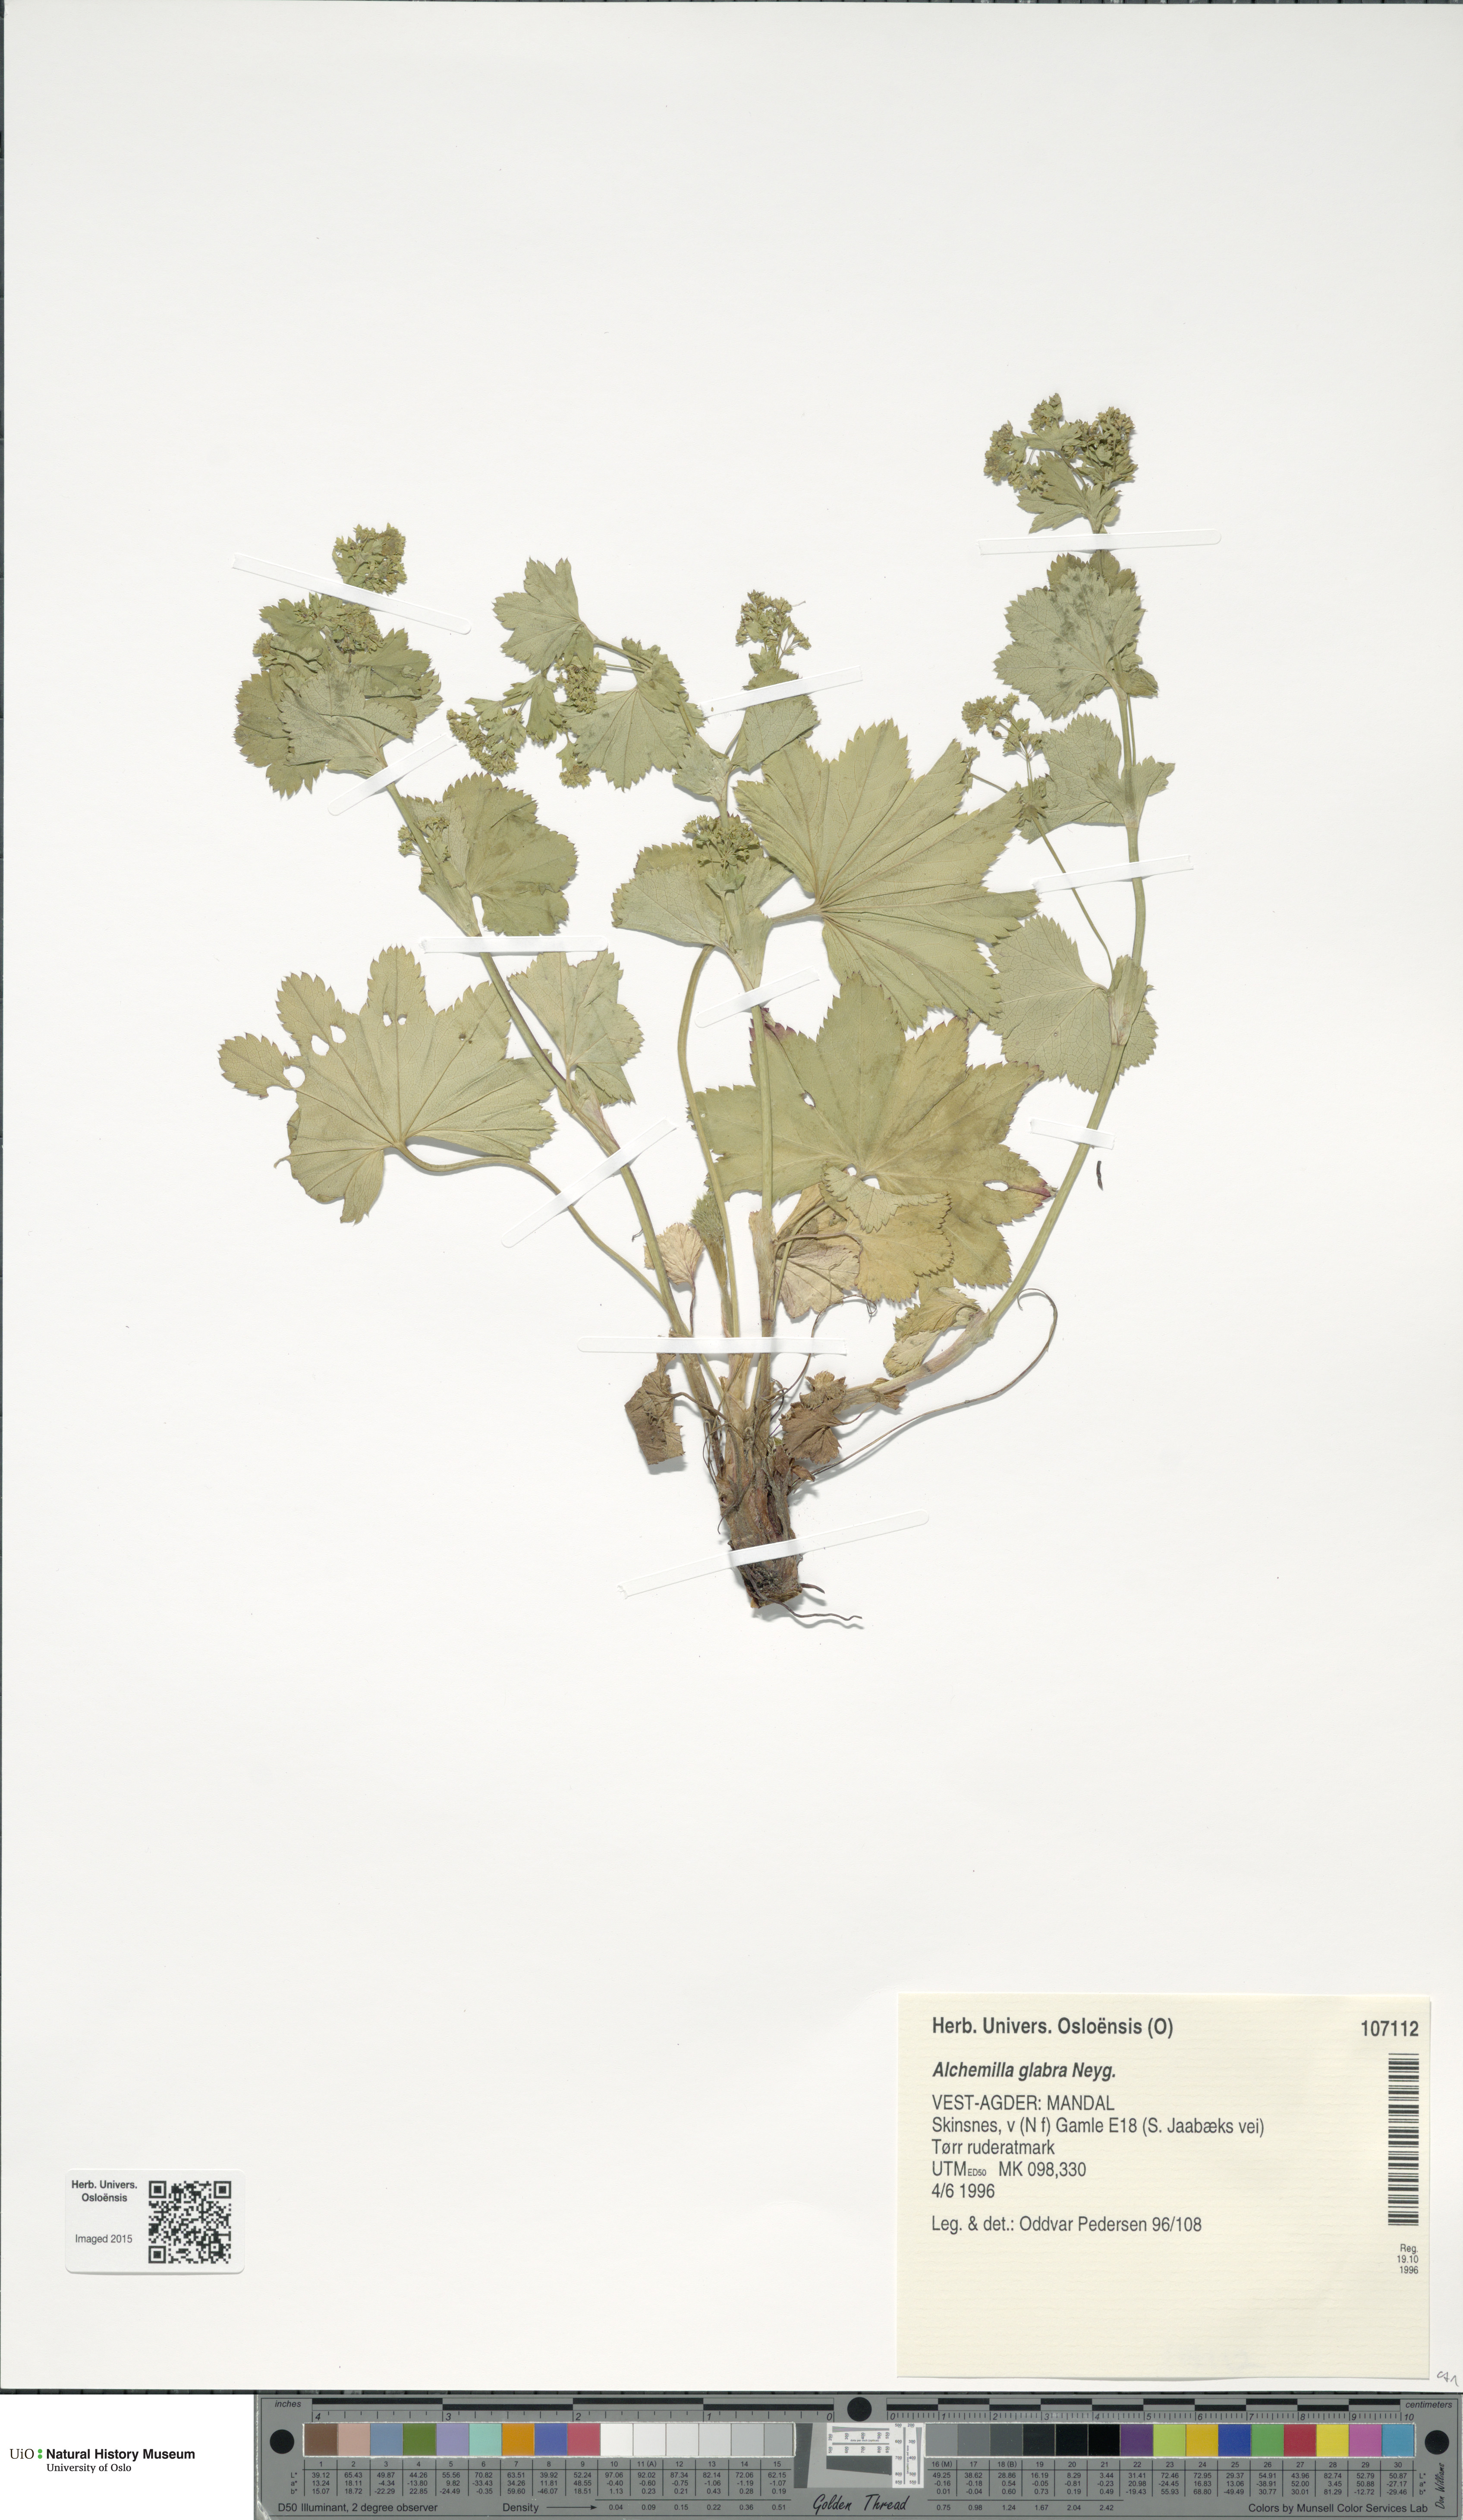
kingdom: Plantae
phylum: Tracheophyta
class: Magnoliopsida
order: Rosales
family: Rosaceae
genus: Alchemilla
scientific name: Alchemilla glabra
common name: Smooth lady's-mantle
